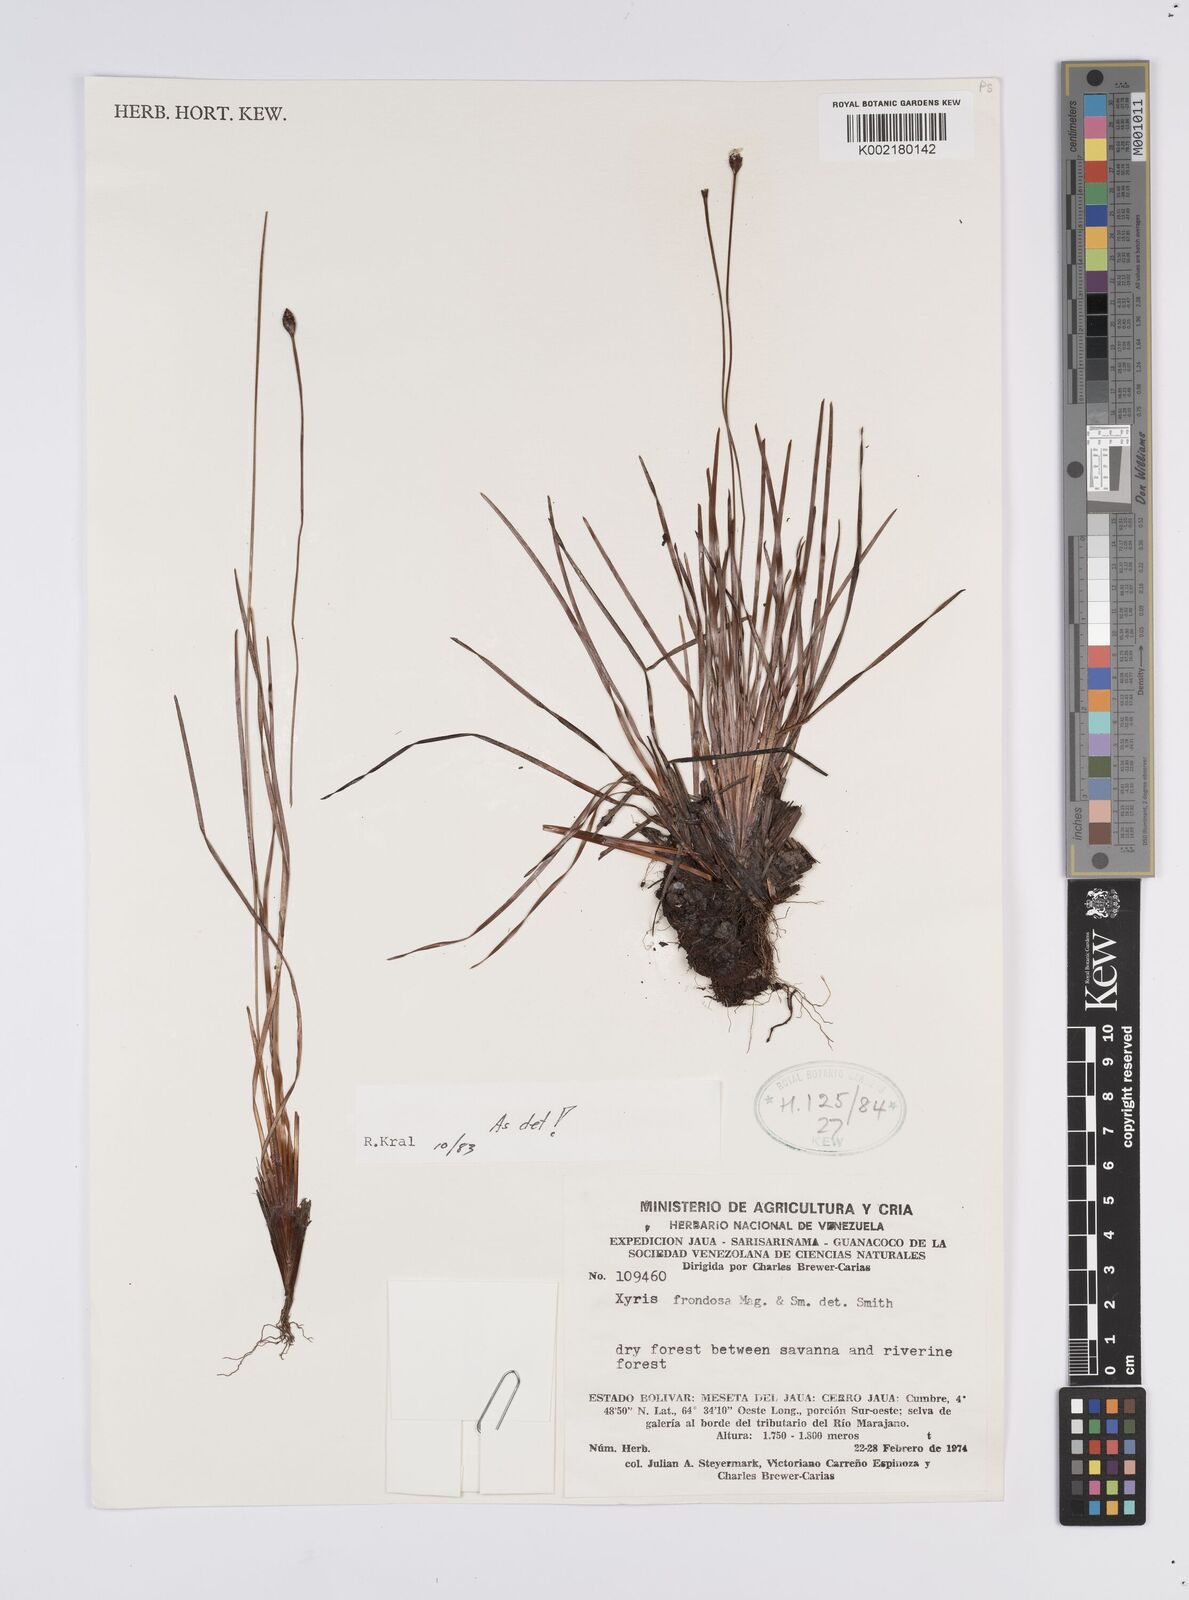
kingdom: Plantae
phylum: Tracheophyta
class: Liliopsida
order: Poales
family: Xyridaceae
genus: Xyris
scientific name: Xyris frondosa
